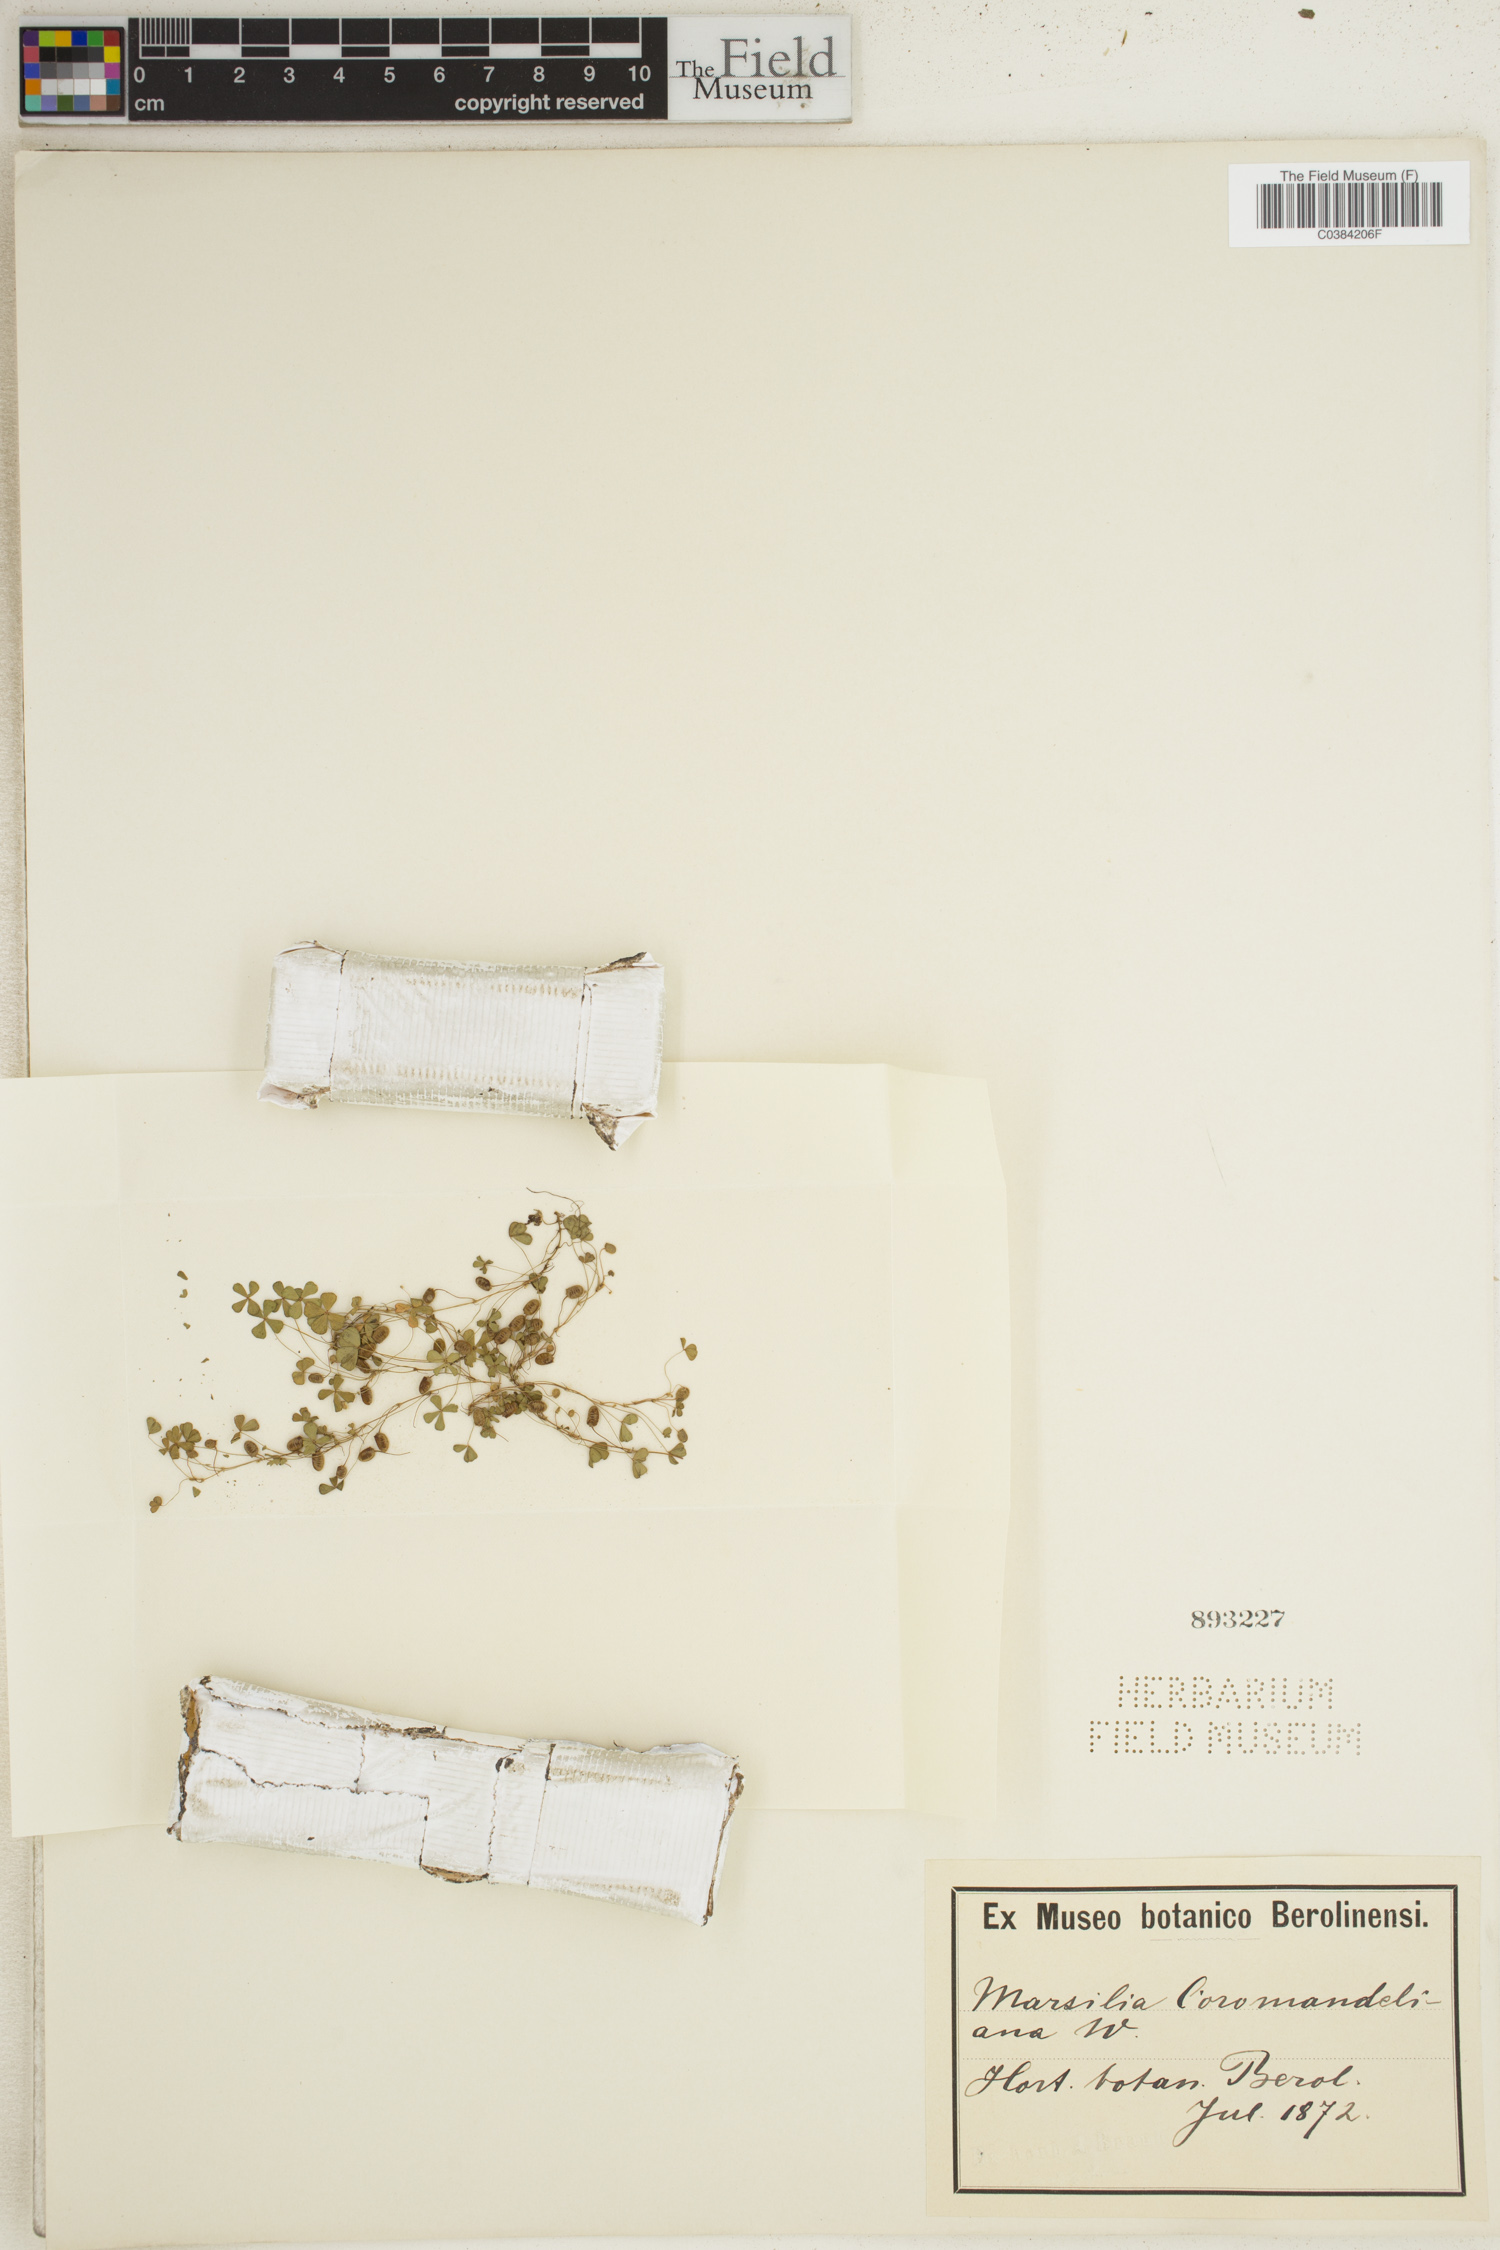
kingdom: Plantae
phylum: Tracheophyta
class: Polypodiopsida
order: Salviniales
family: Marsileaceae
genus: Marsilea
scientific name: Marsilea coromandelina
